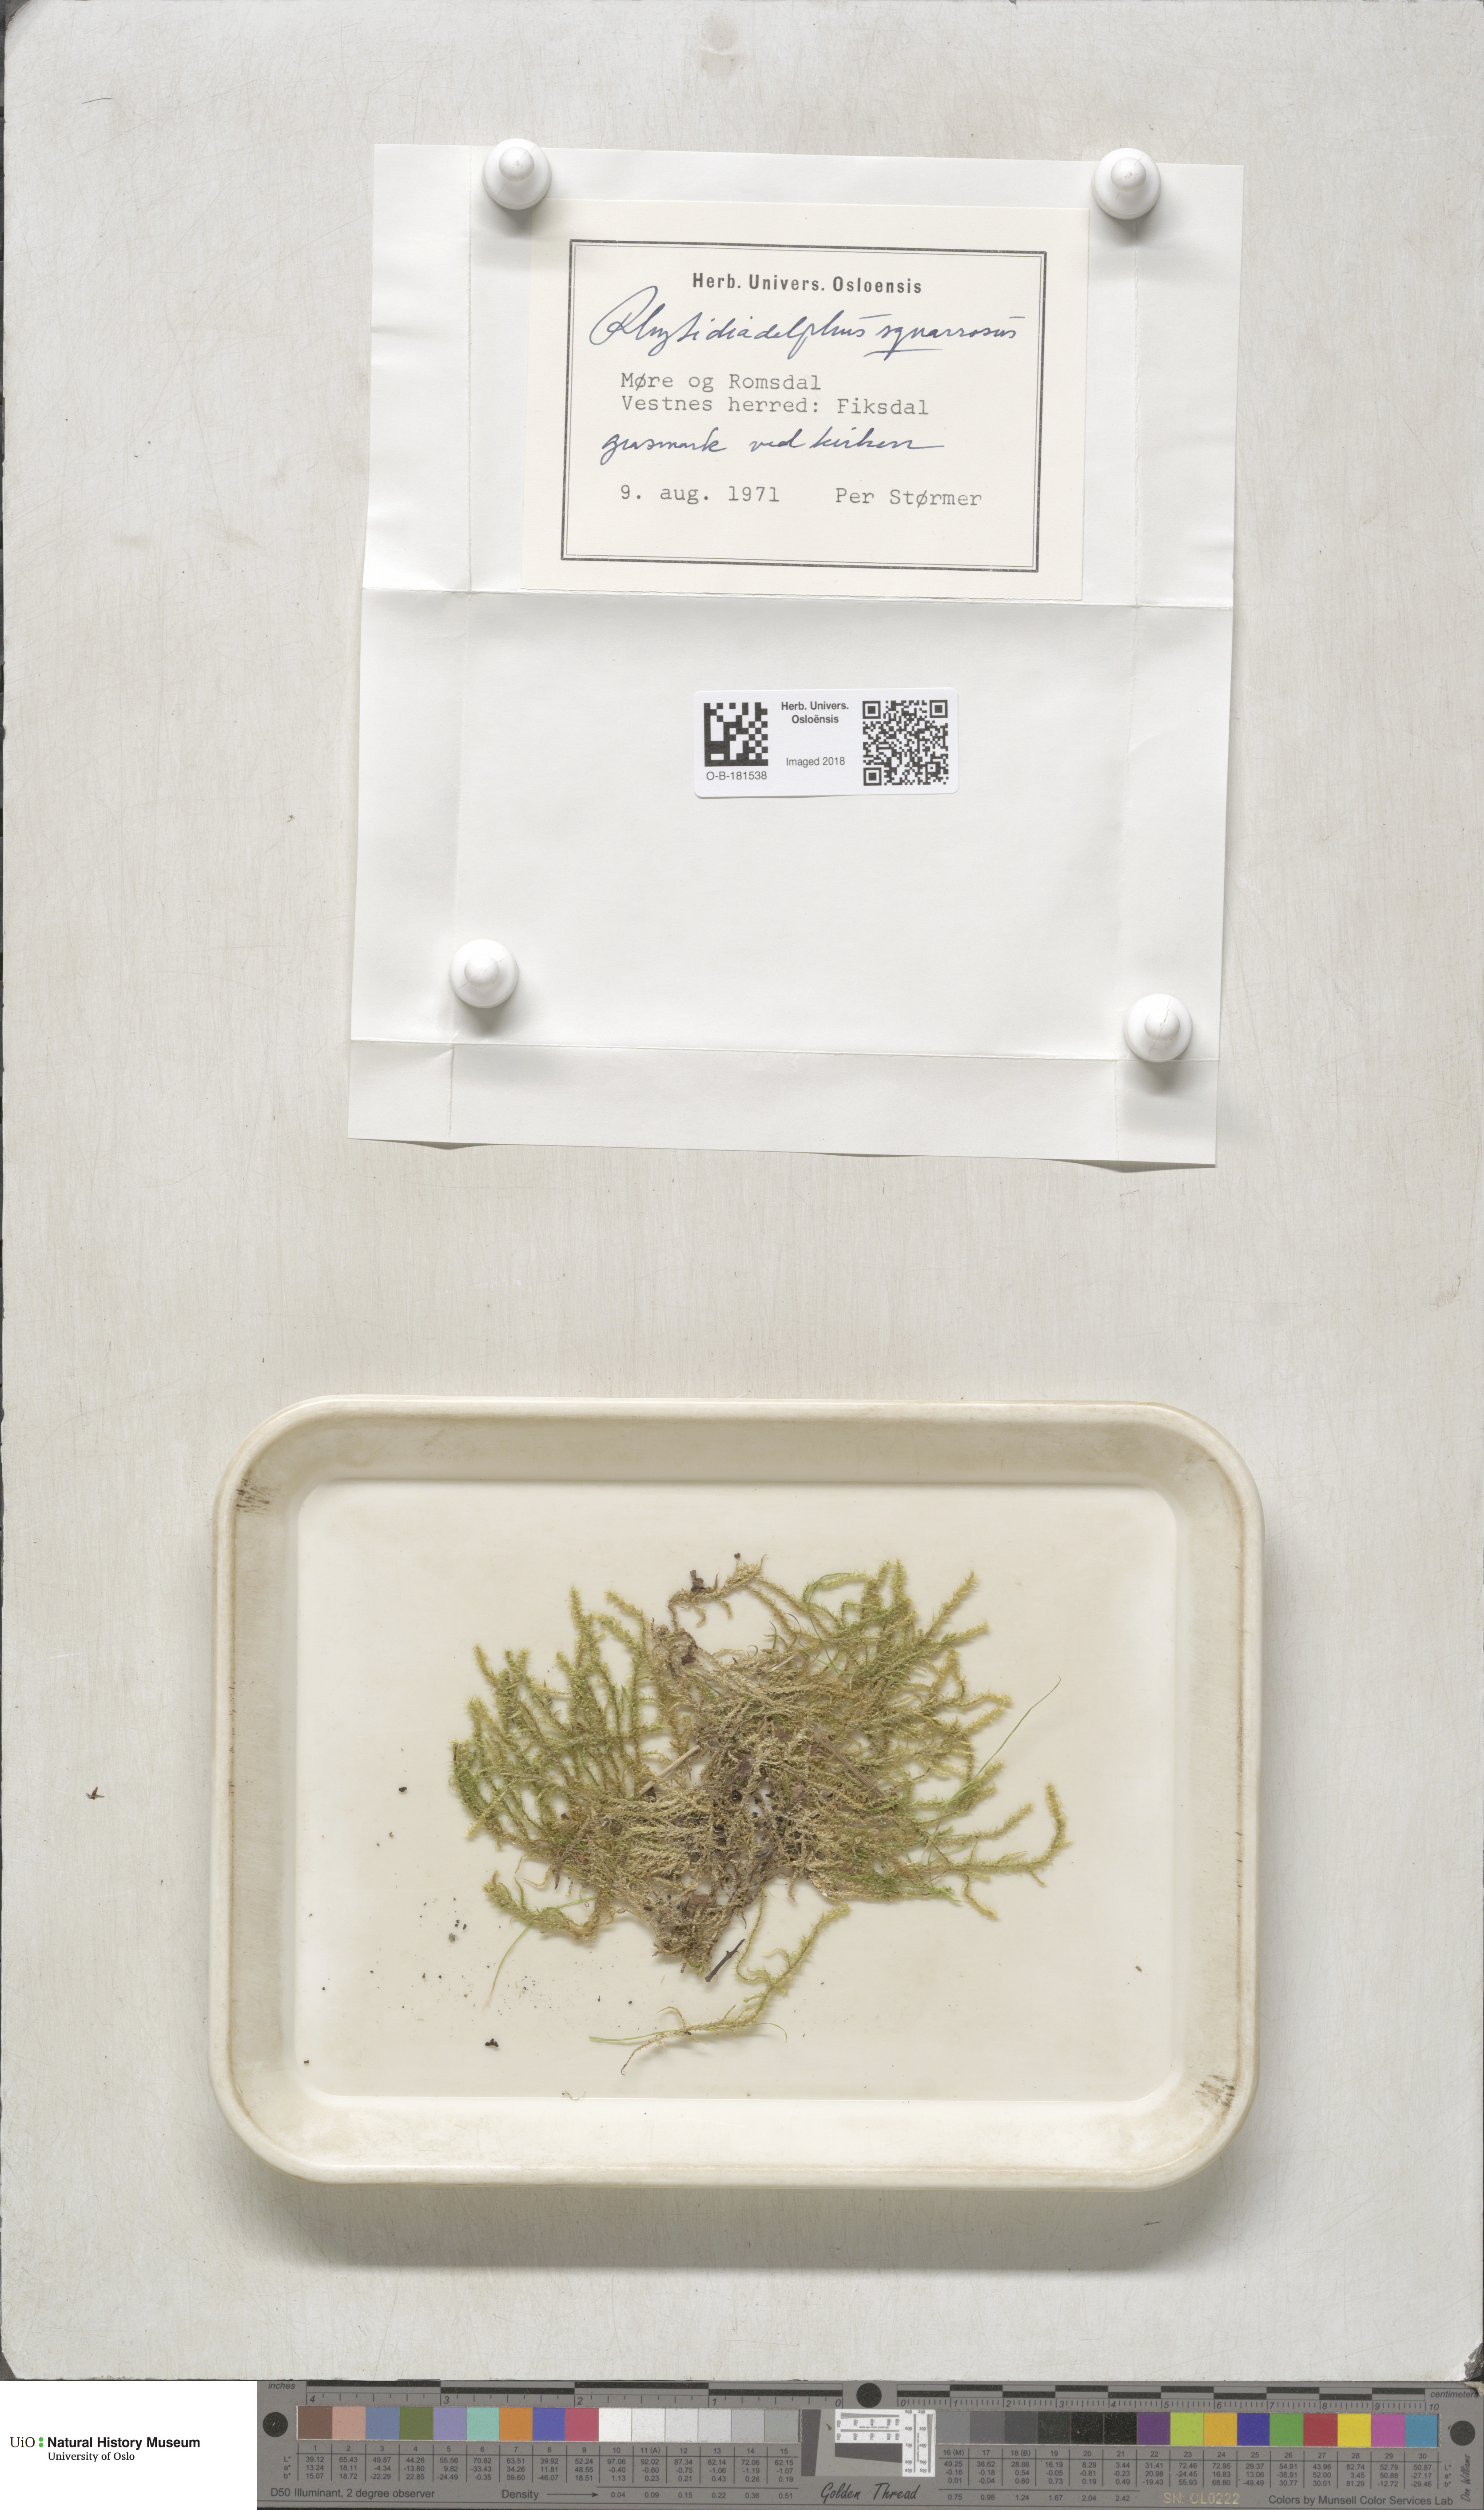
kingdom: Plantae
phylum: Bryophyta
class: Bryopsida
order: Hypnales
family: Hylocomiaceae
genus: Rhytidiadelphus
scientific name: Rhytidiadelphus squarrosus
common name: Springy turf-moss
